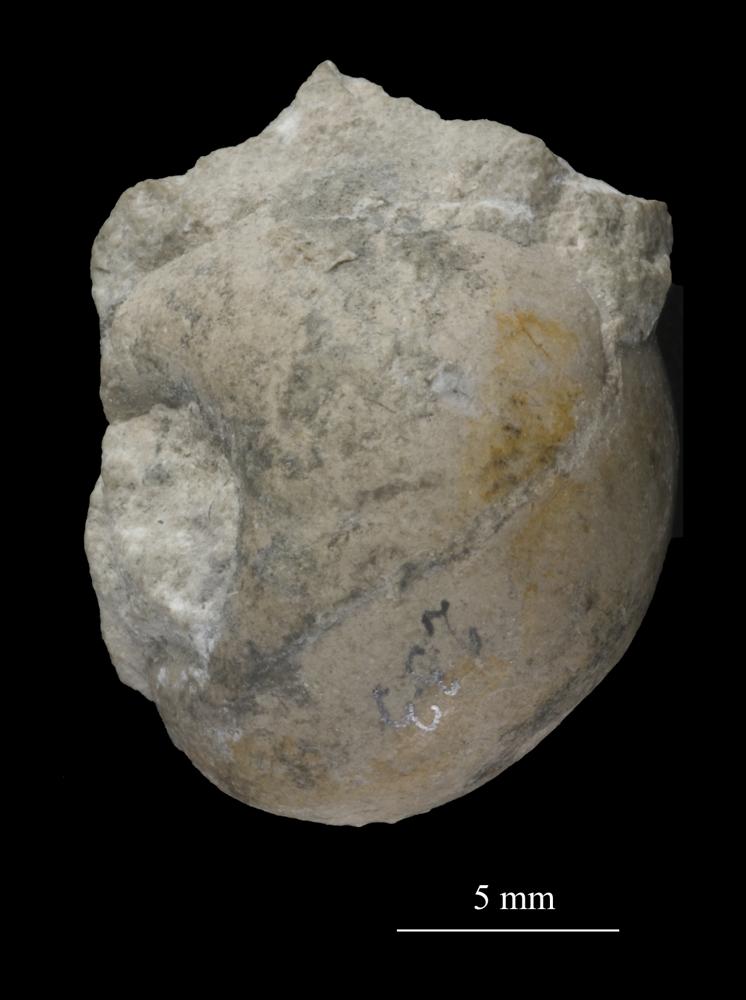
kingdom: Animalia
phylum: Mollusca
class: Gastropoda
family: Bucaniidae
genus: Tetranota
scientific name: Tetranota Bucaniella jugata
